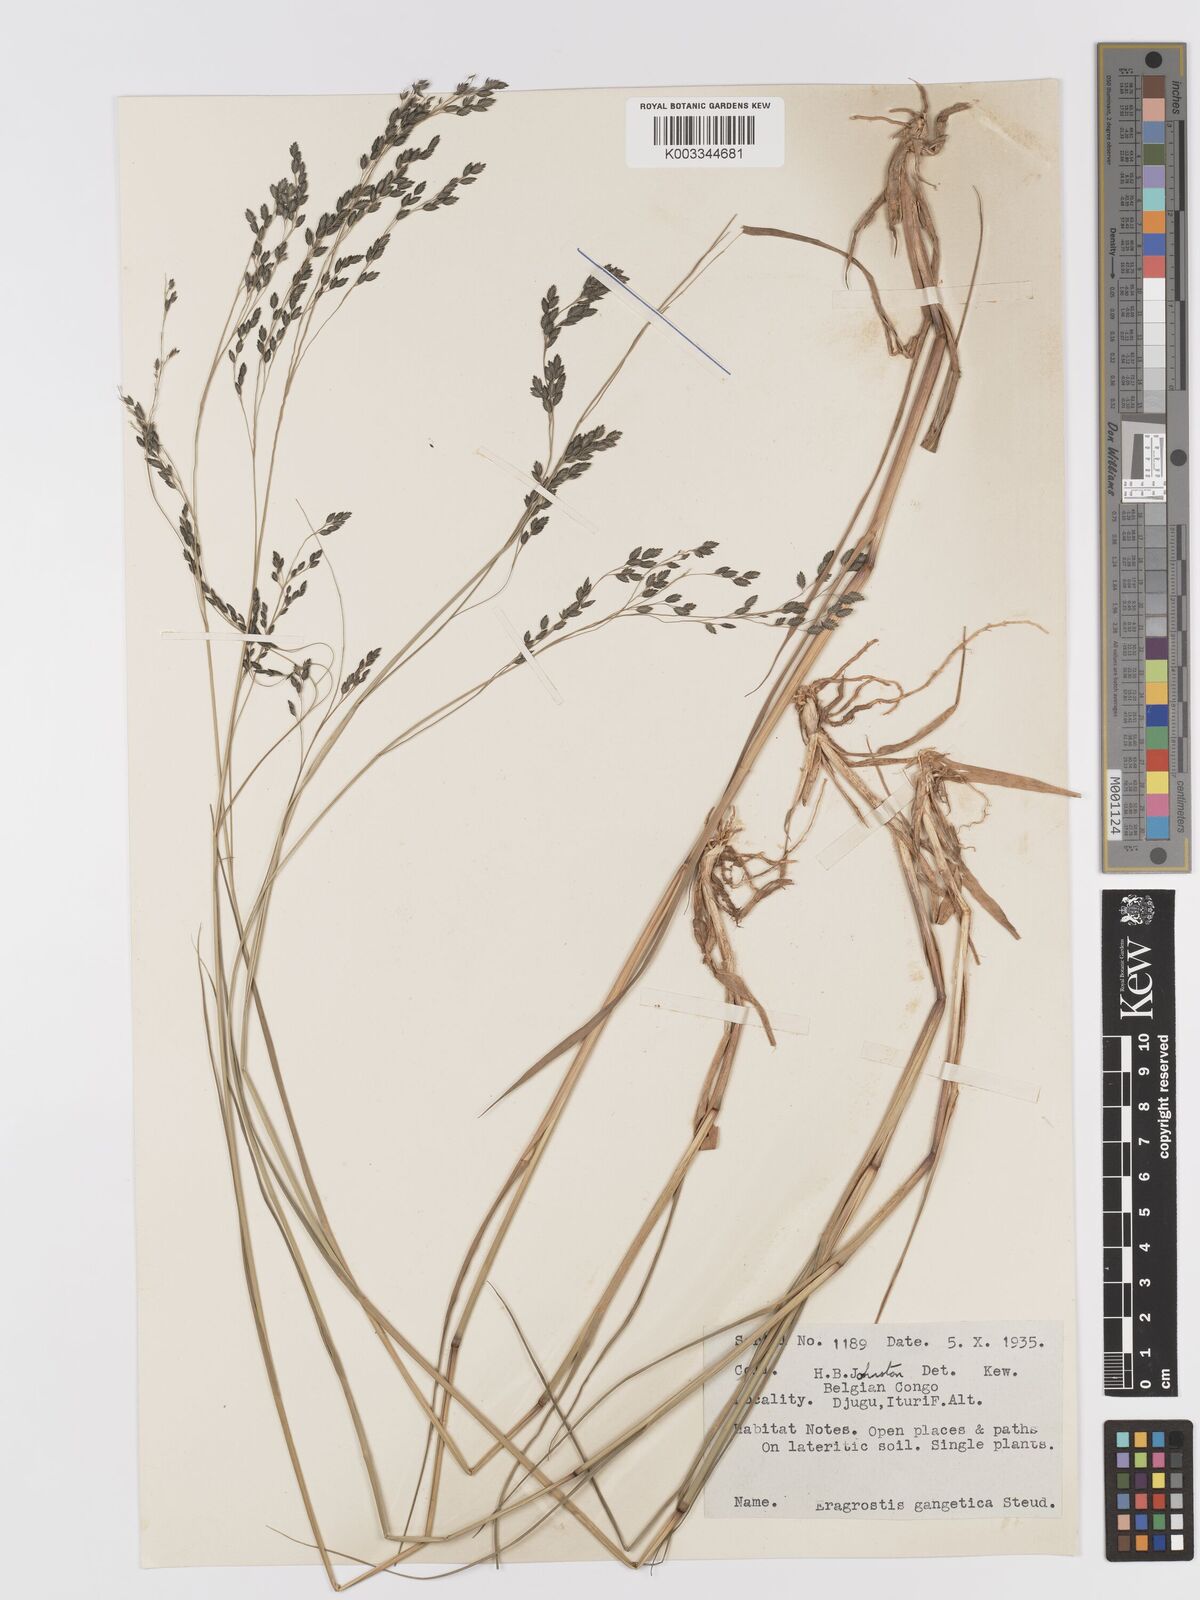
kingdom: Plantae
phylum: Tracheophyta
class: Liliopsida
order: Poales
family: Poaceae
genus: Eragrostis
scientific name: Eragrostis atrovirens
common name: Thalia lovegrass
